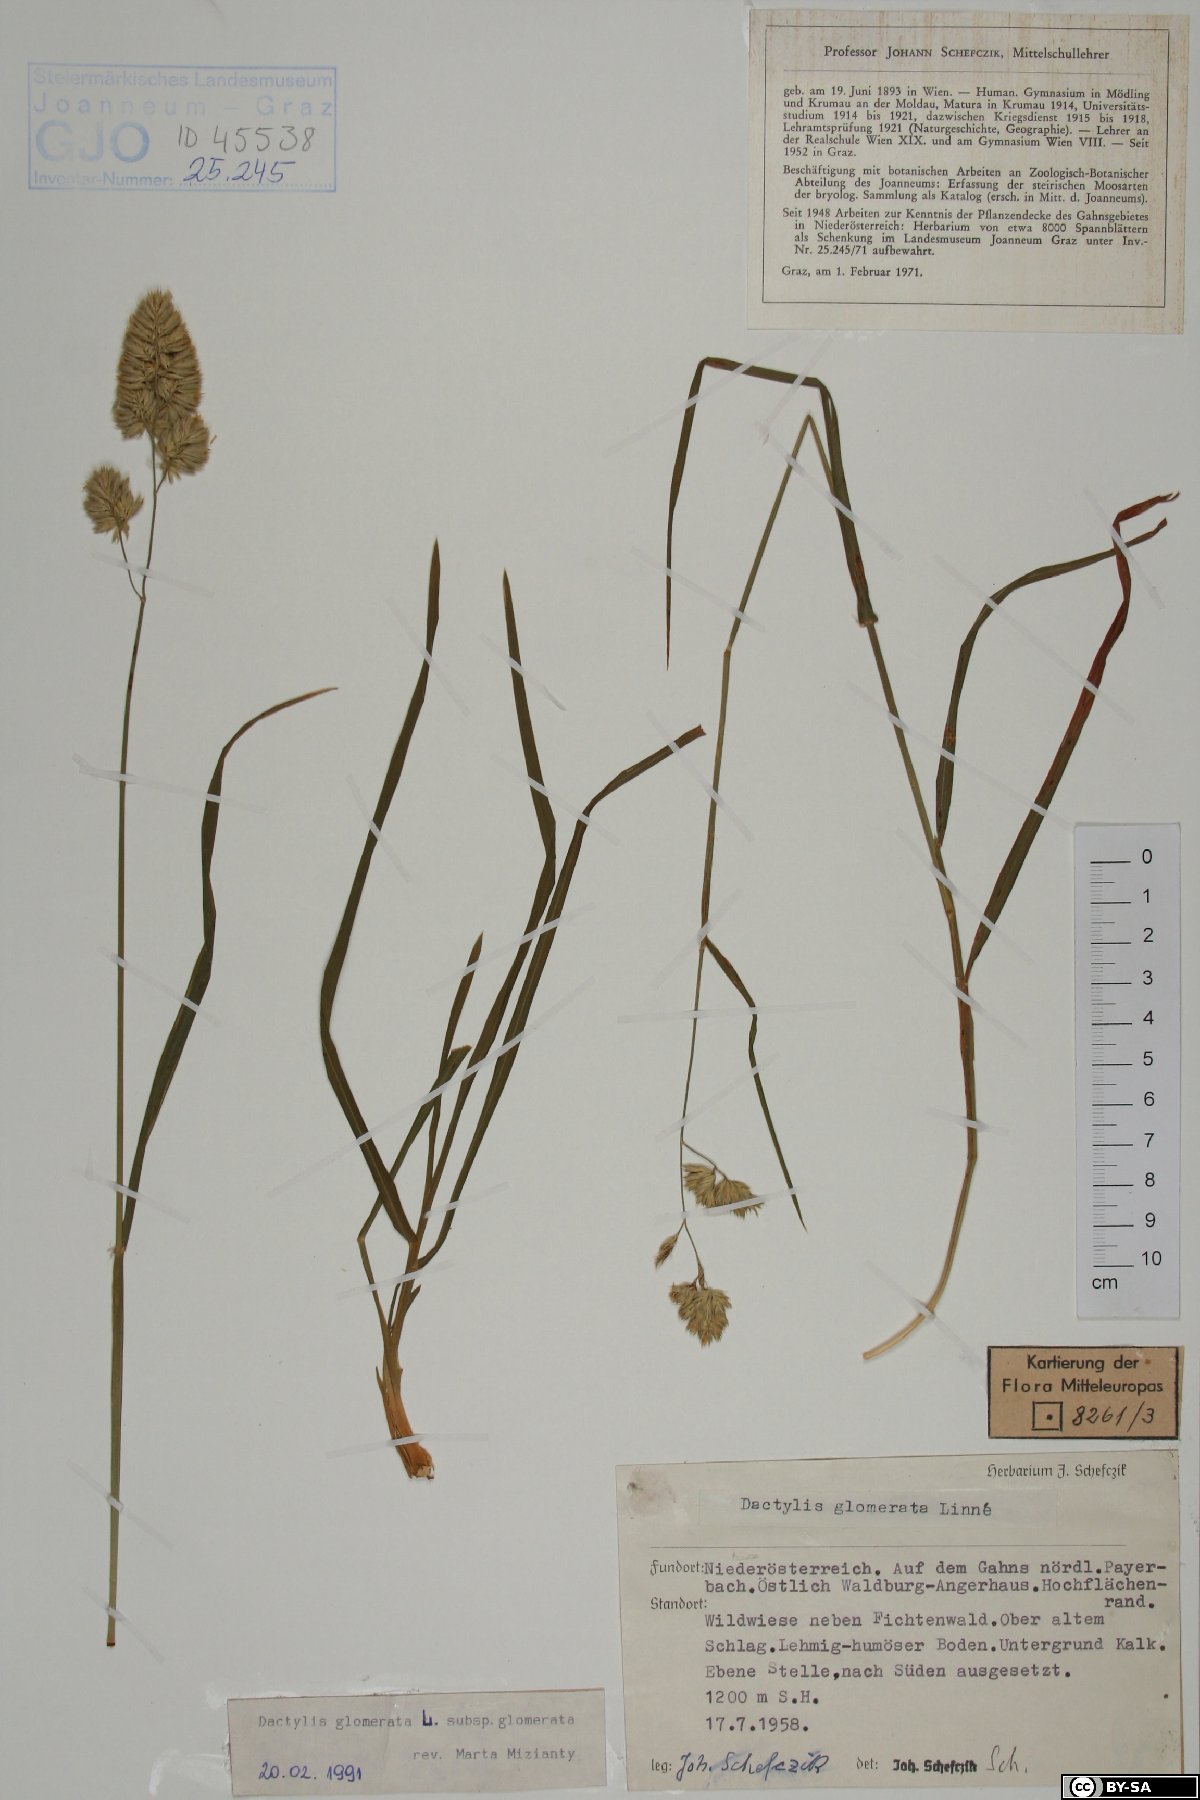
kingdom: Plantae
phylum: Tracheophyta
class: Liliopsida
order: Poales
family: Poaceae
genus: Dactylis
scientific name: Dactylis glomerata
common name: Orchardgrass
